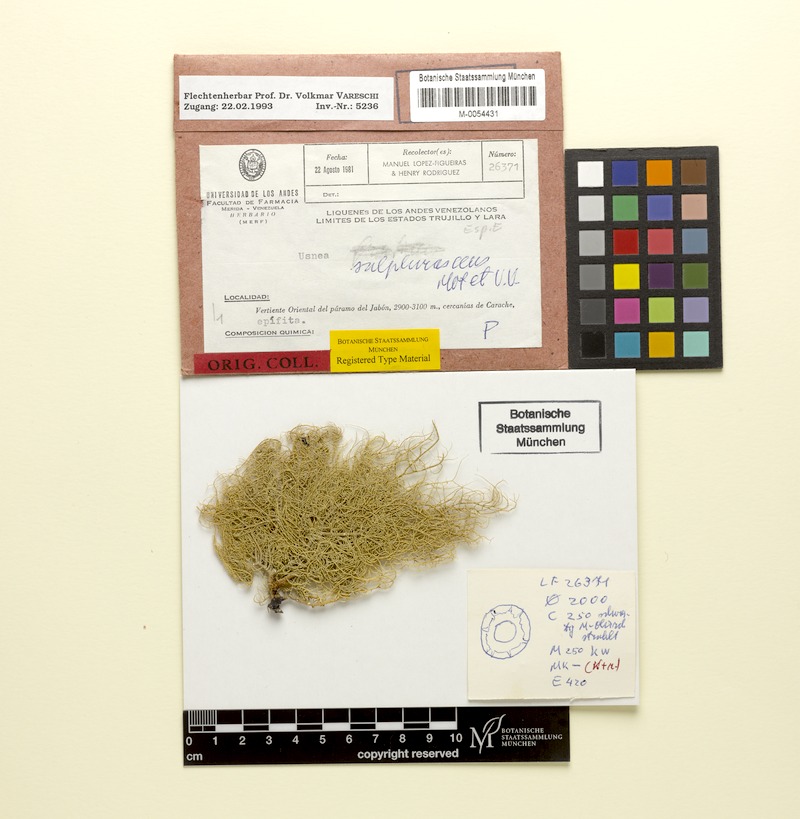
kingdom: Fungi
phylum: Ascomycota
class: Lecanoromycetes
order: Lecanorales
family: Parmeliaceae
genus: Usnea
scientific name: Usnea fruticans
